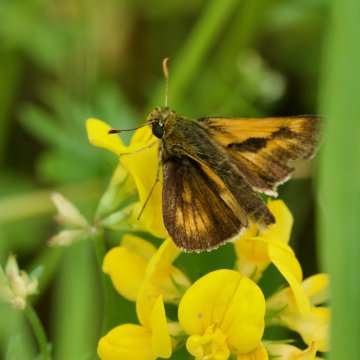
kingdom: Animalia
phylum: Arthropoda
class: Insecta
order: Lepidoptera
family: Hesperiidae
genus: Polites
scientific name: Polites
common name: Long Dash Skipper
